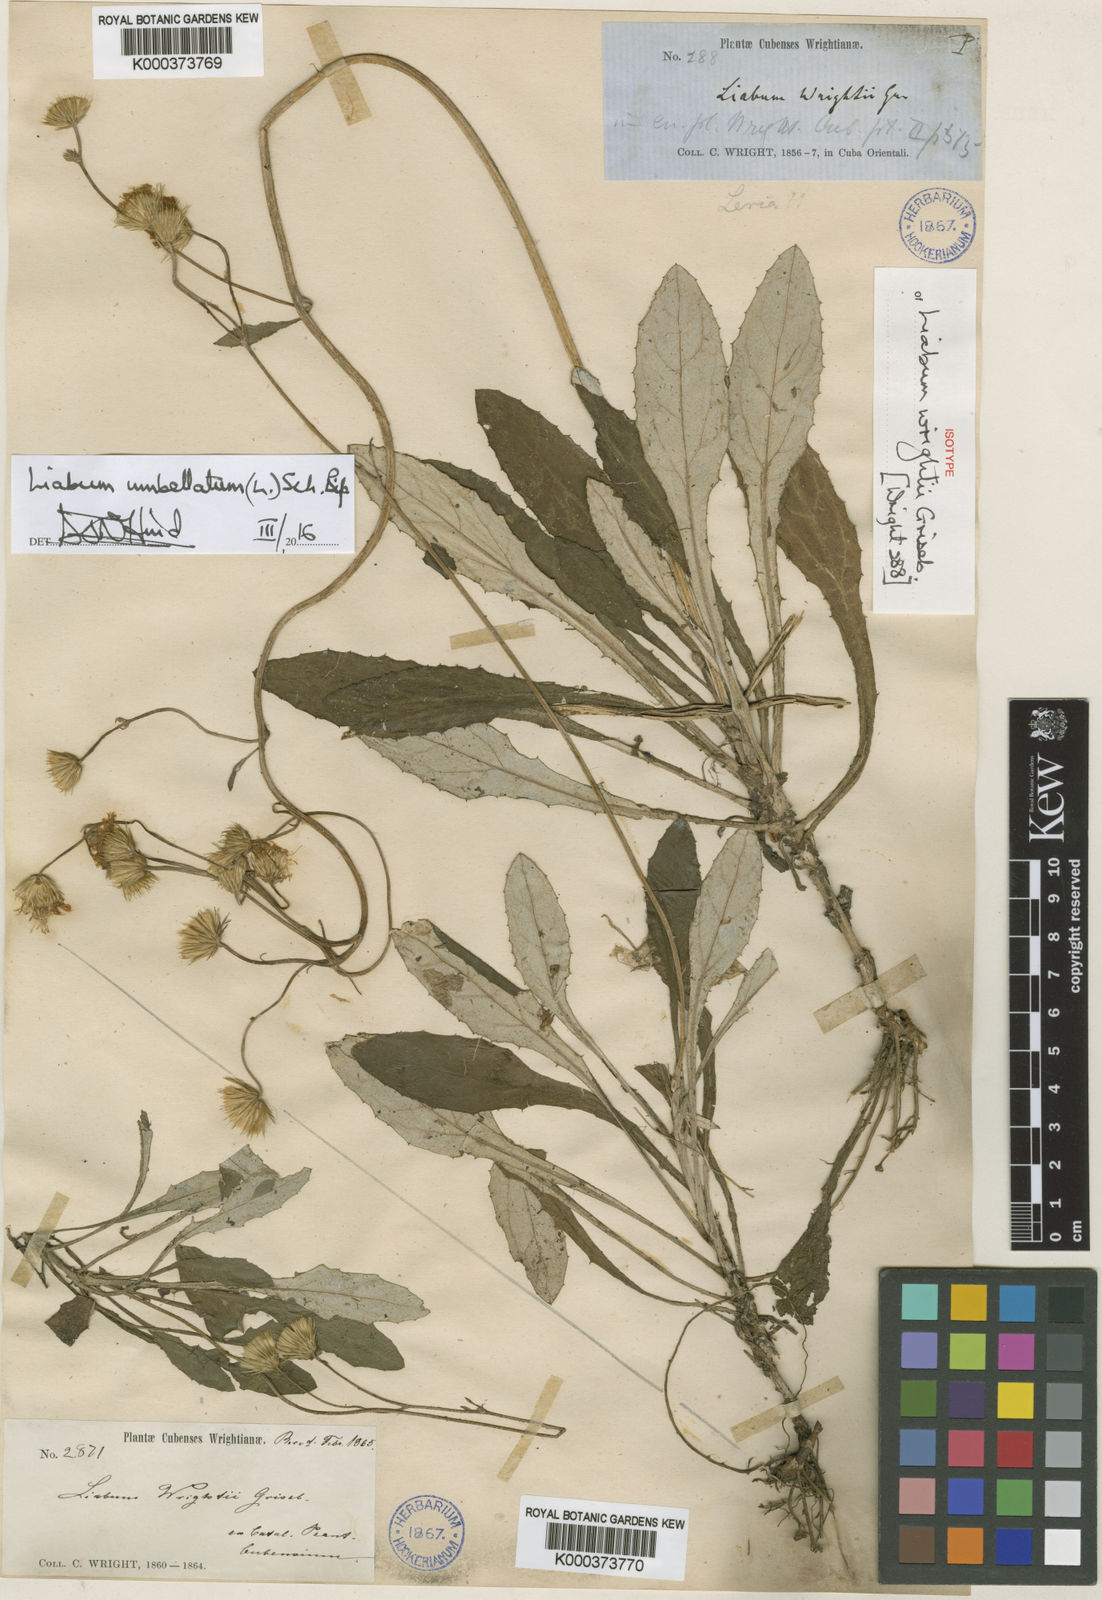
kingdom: Plantae
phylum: Tracheophyta
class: Magnoliopsida
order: Asterales
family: Asteraceae
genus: Liabum
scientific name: Liabum umbellatum
